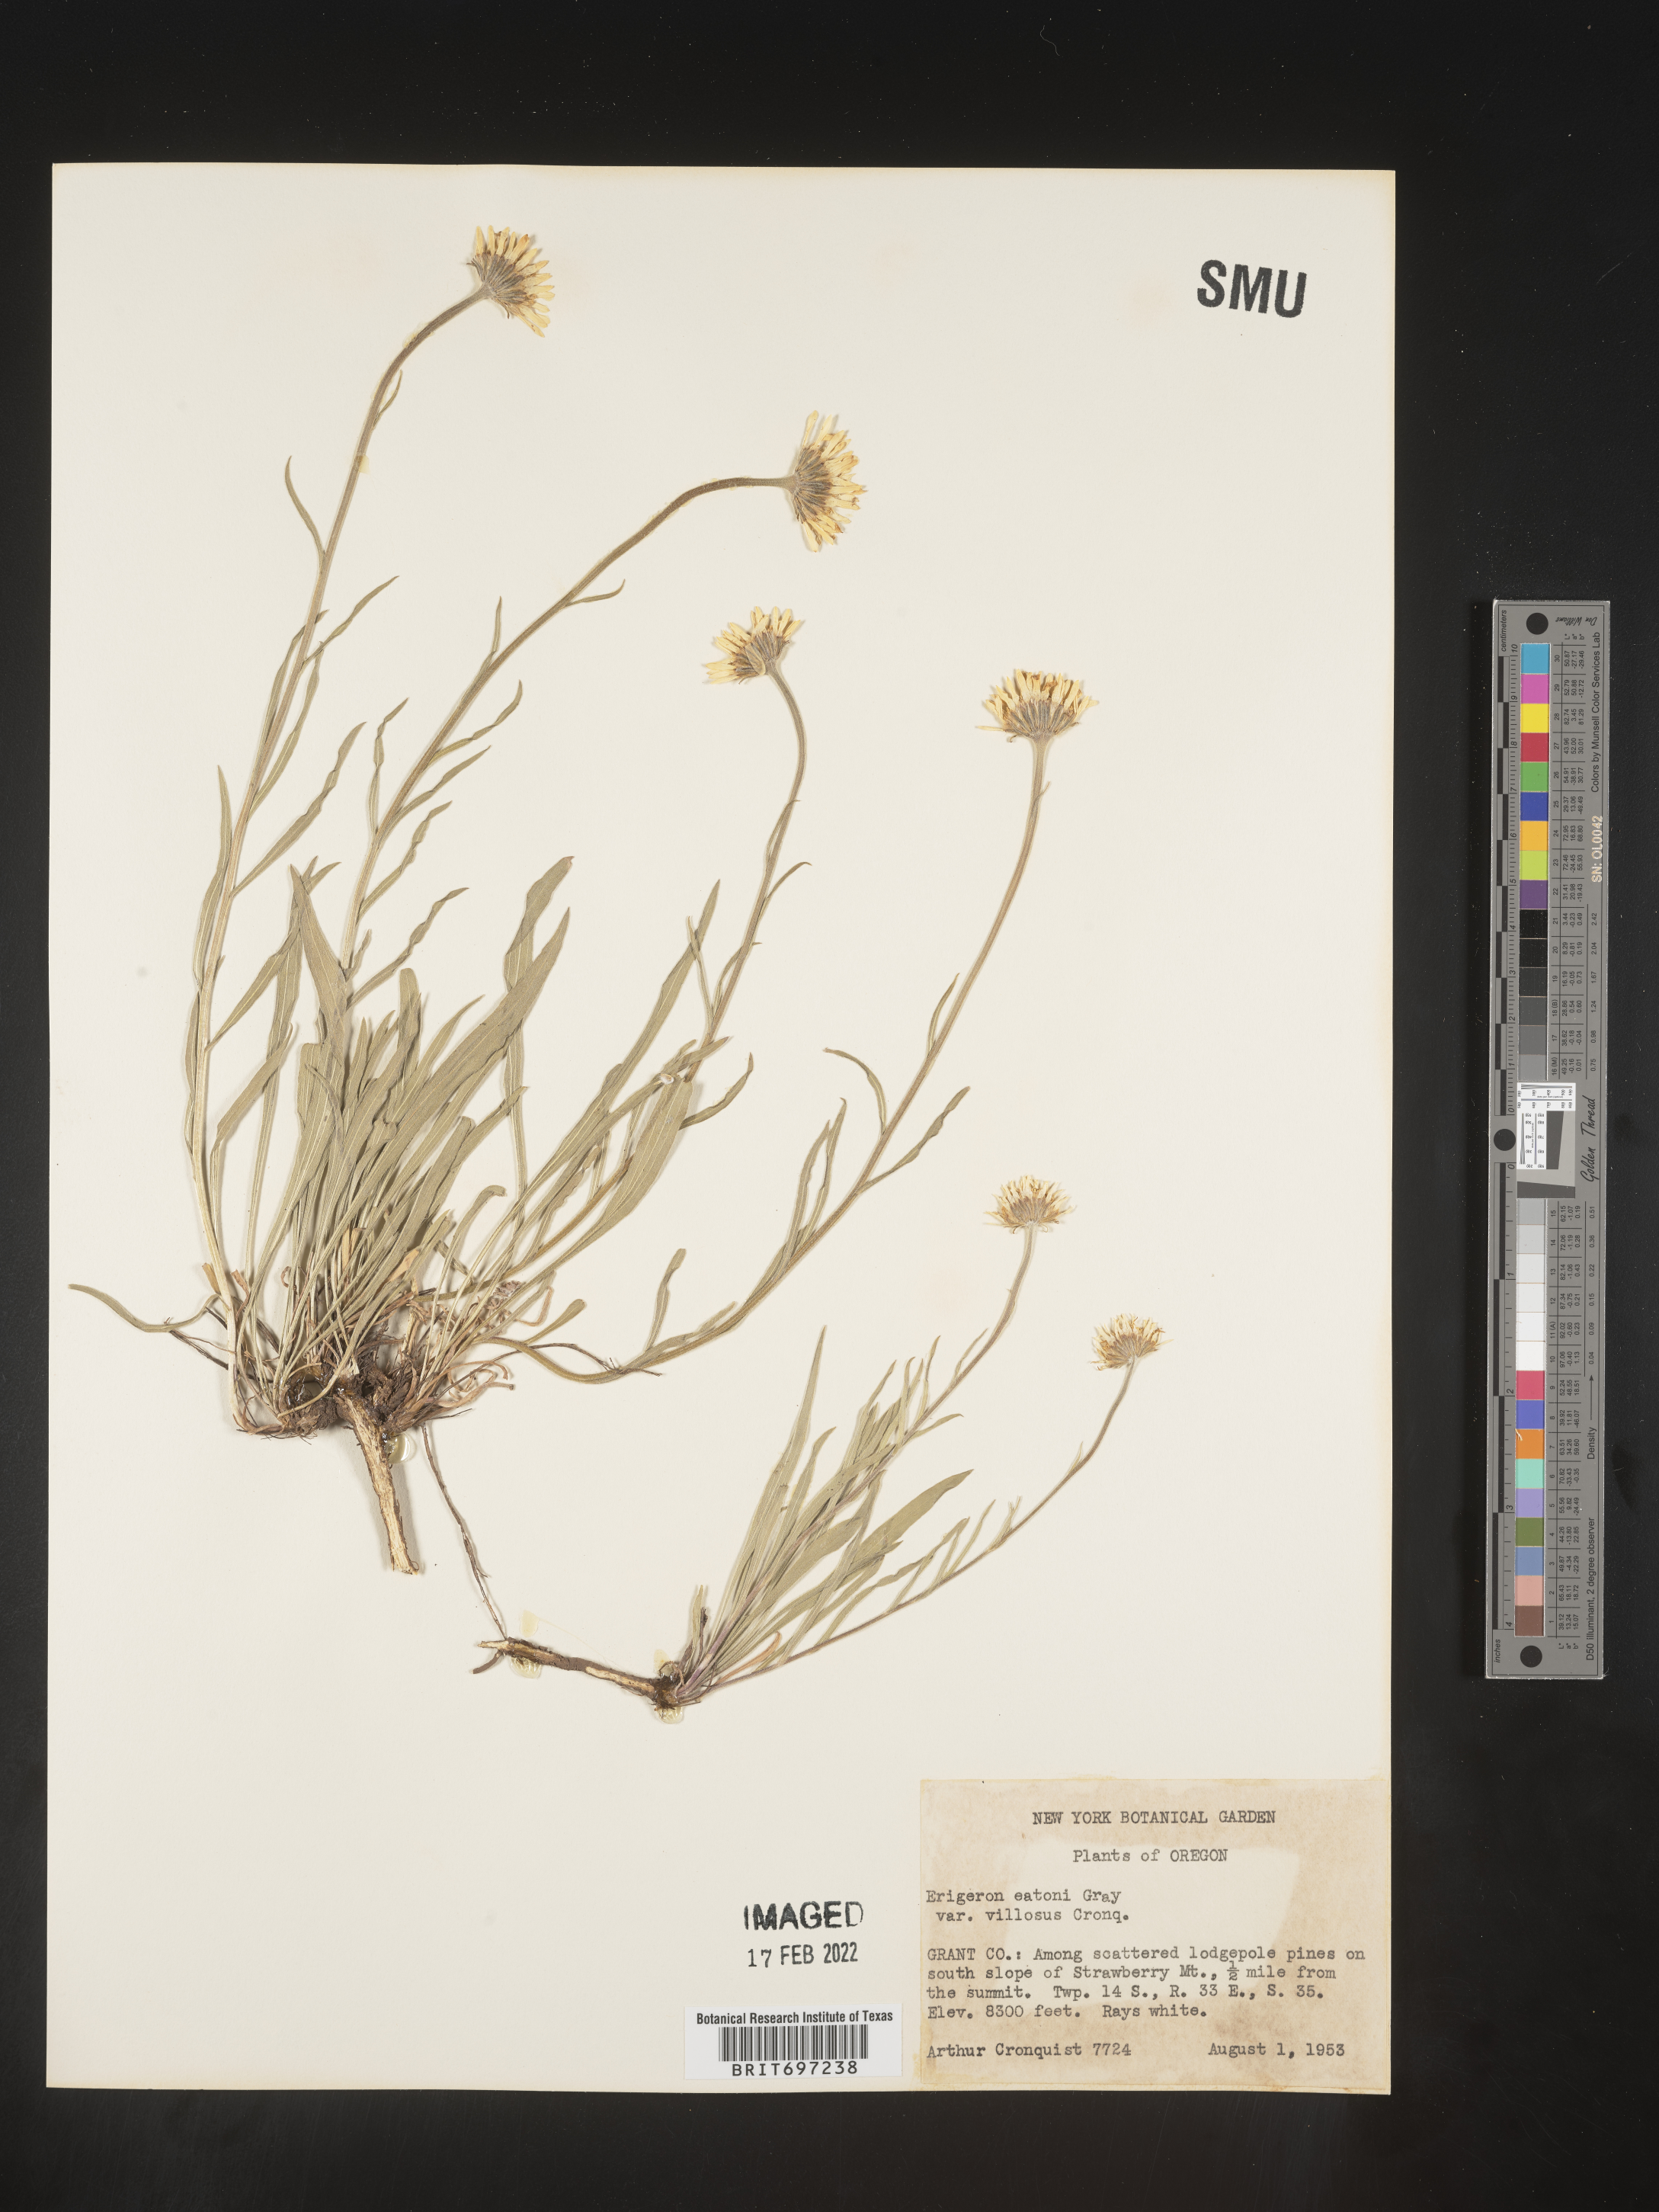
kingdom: Plantae
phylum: Tracheophyta
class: Magnoliopsida
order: Asterales
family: Asteraceae
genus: Erigeron
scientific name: Erigeron eatonii
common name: Eaton's fleabane
